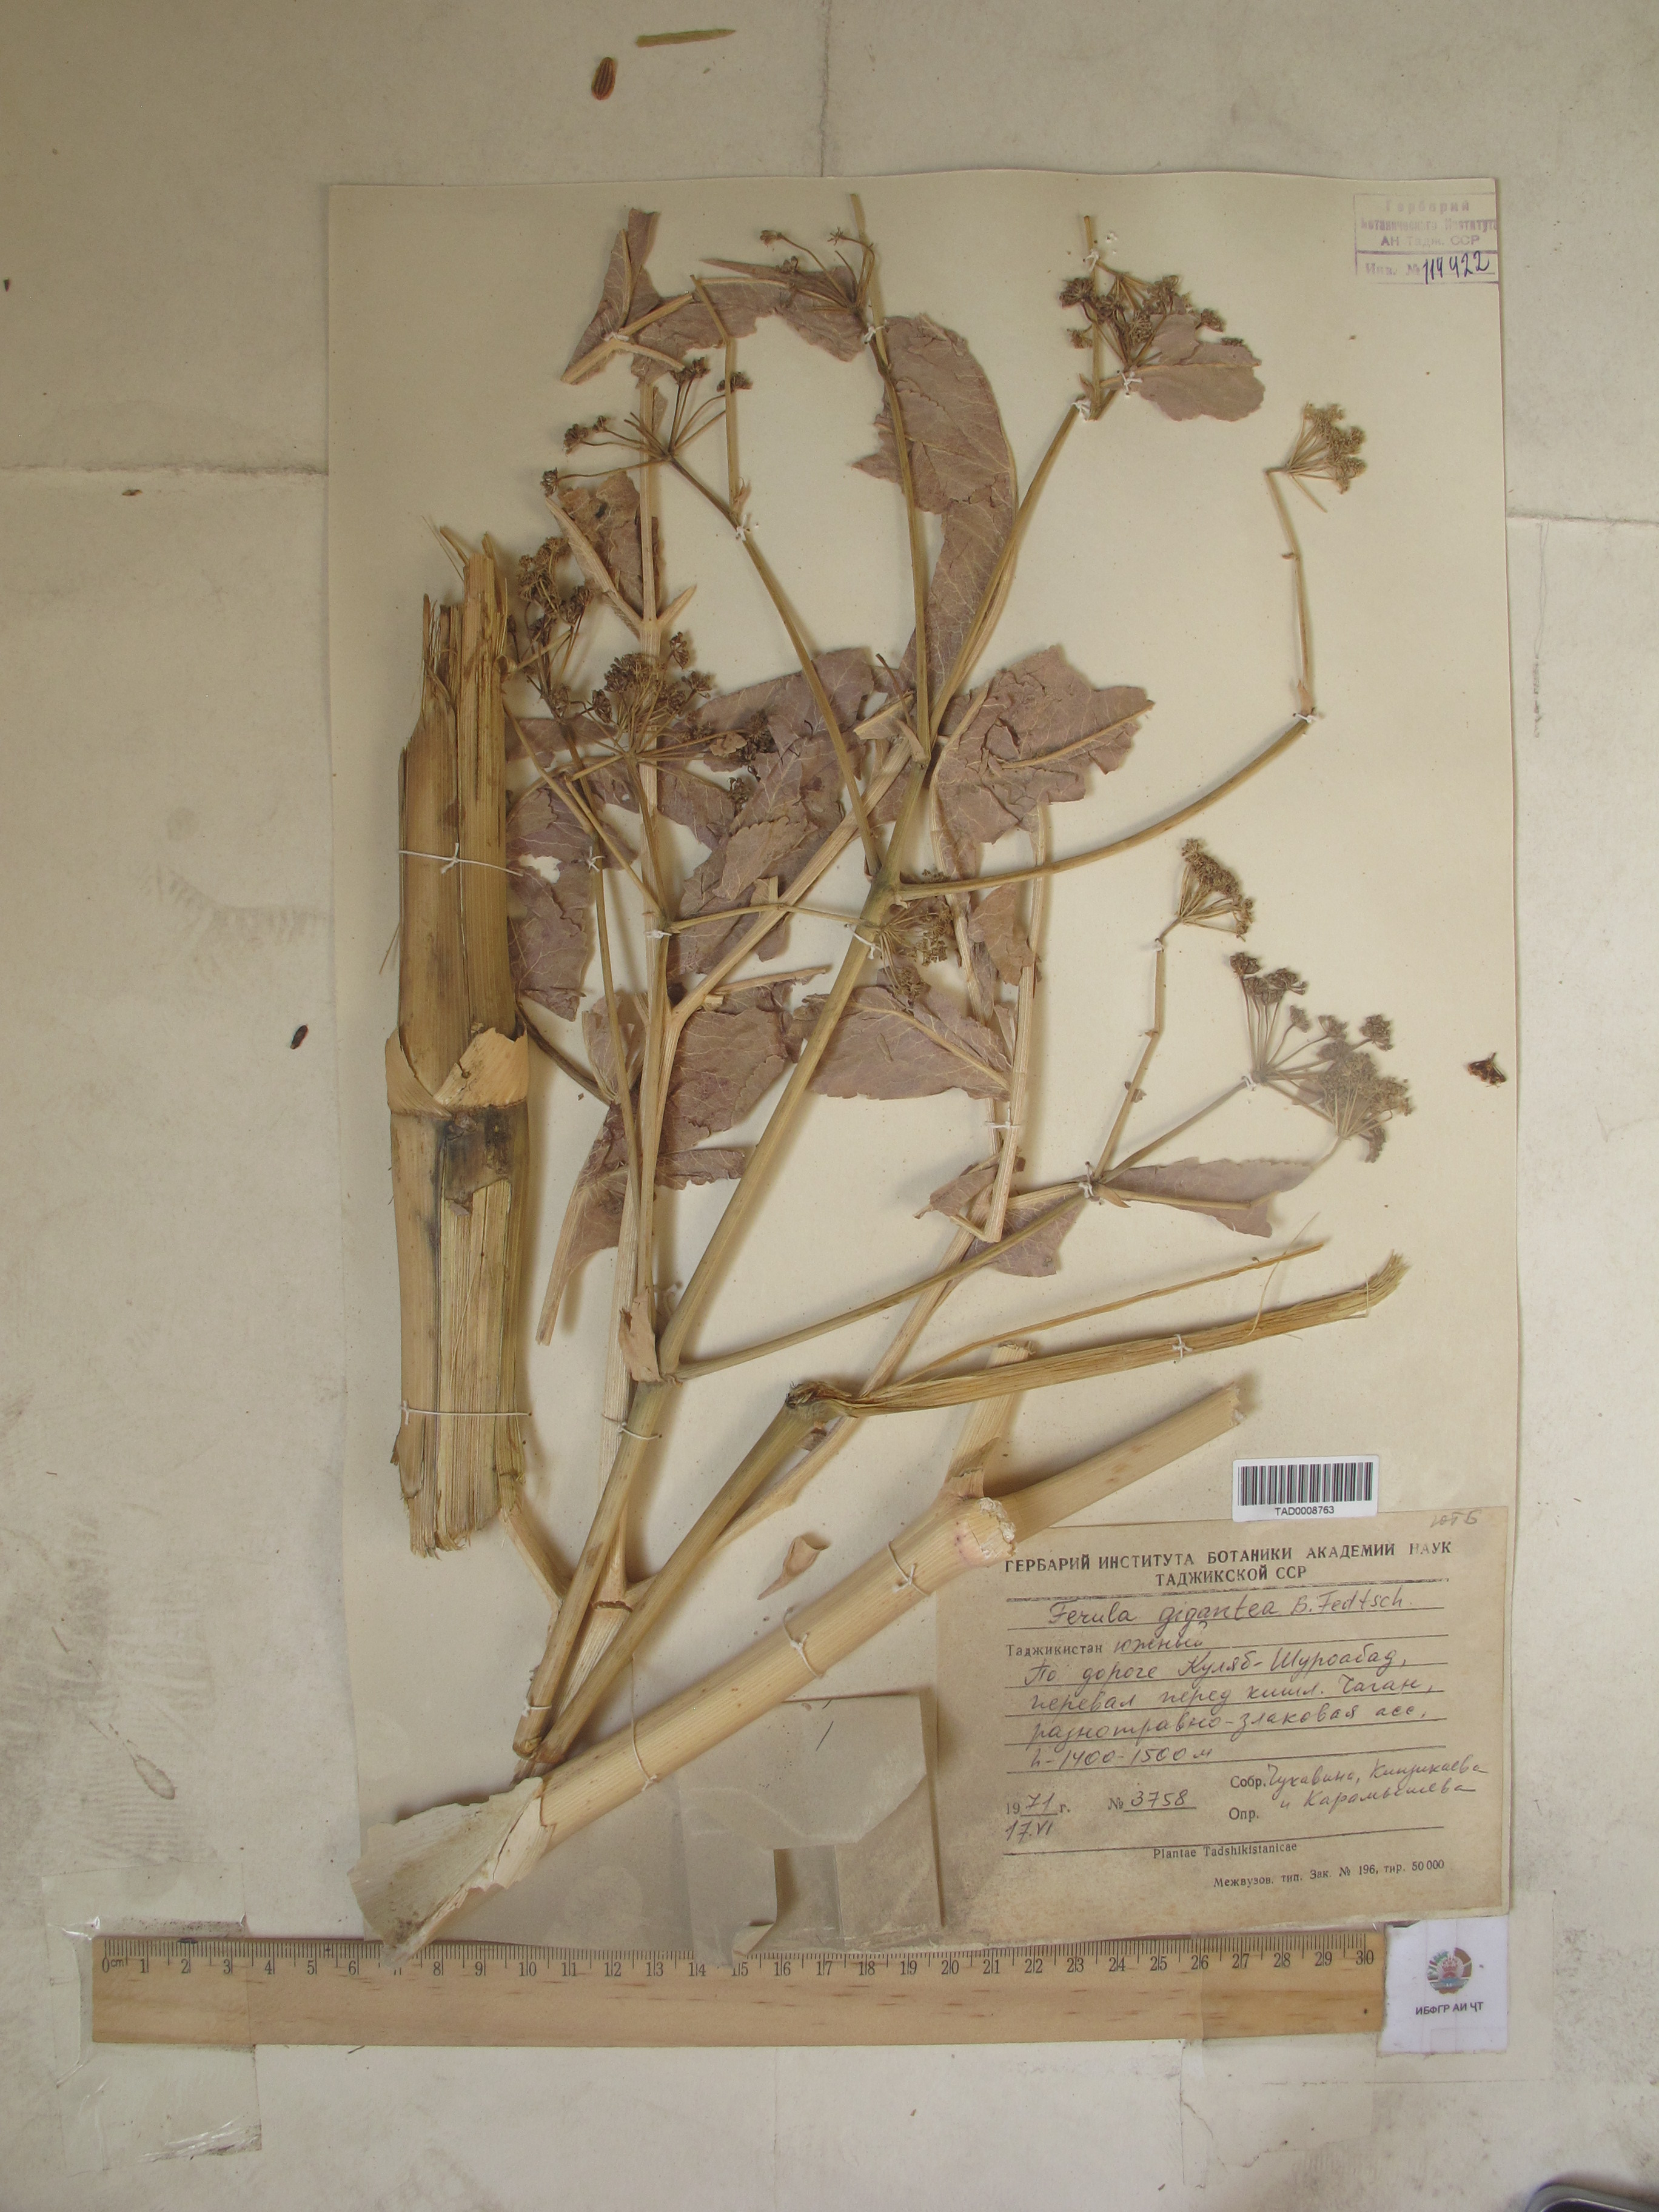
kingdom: Plantae
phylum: Tracheophyta
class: Magnoliopsida
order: Apiales
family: Apiaceae
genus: Ferula
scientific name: Ferula gigantea
